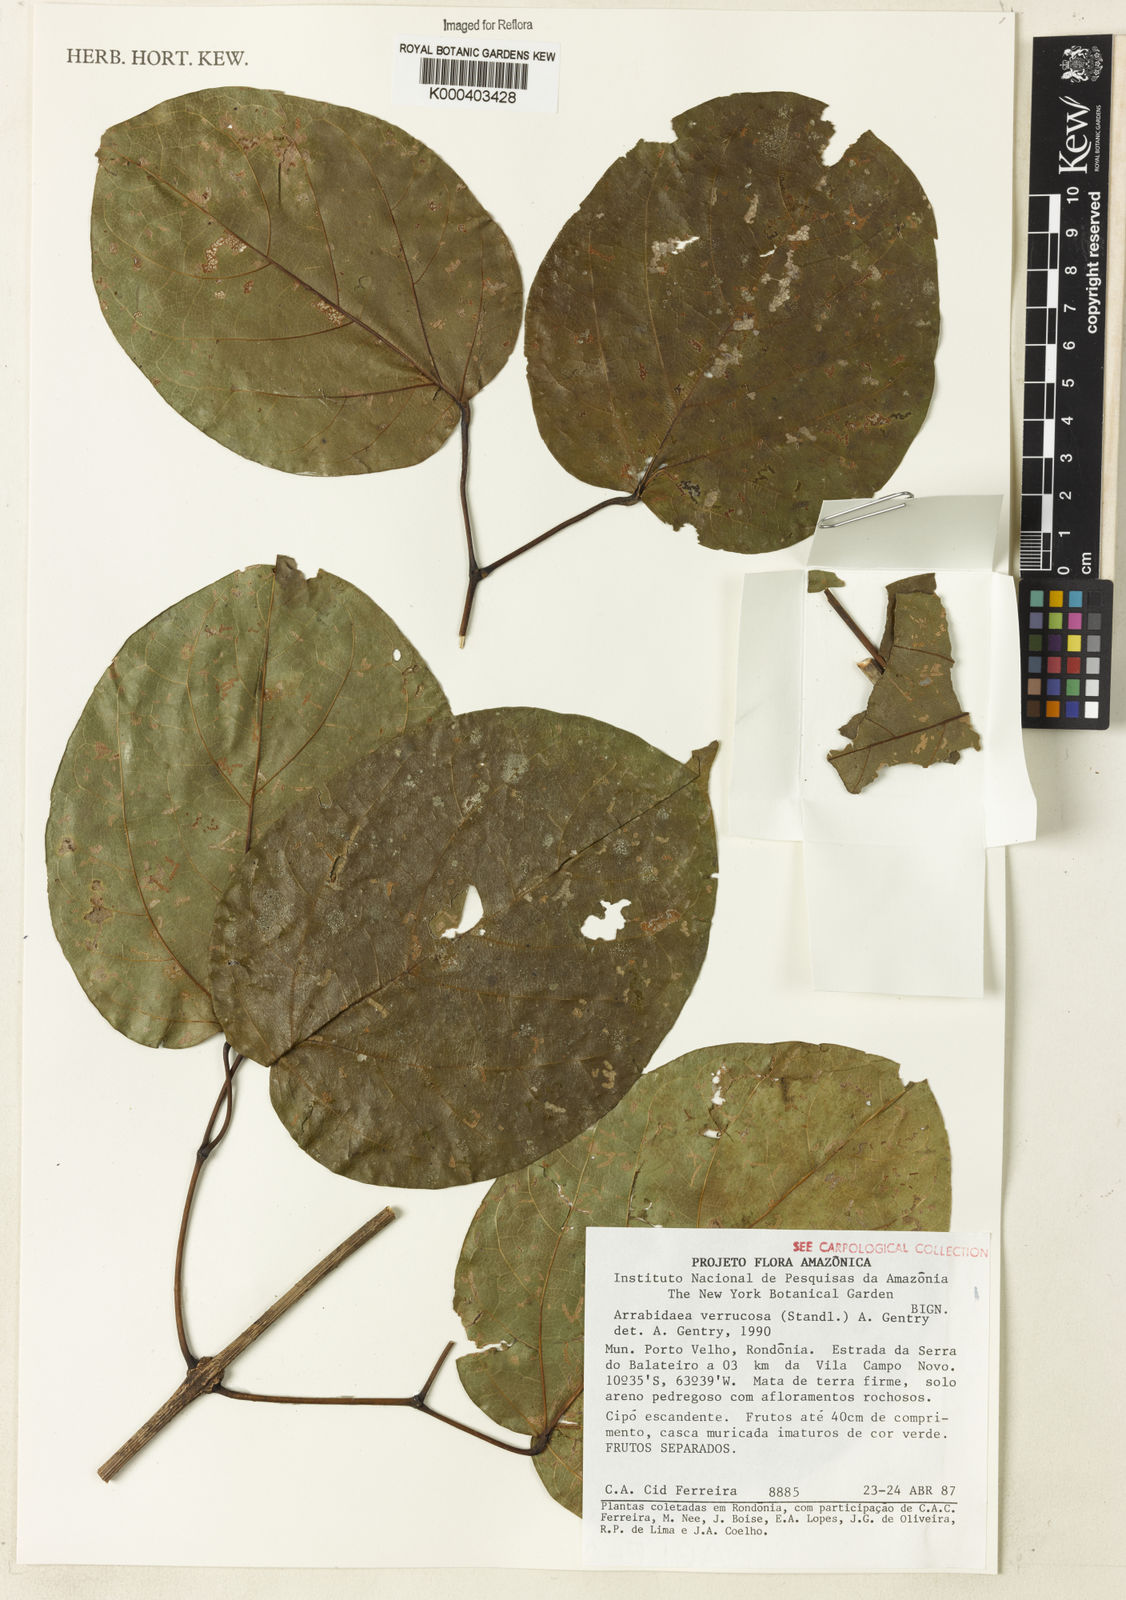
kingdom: Plantae
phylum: Tracheophyta
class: Magnoliopsida
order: Lamiales
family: Bignoniaceae
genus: Fridericia
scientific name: Fridericia schumanniana
